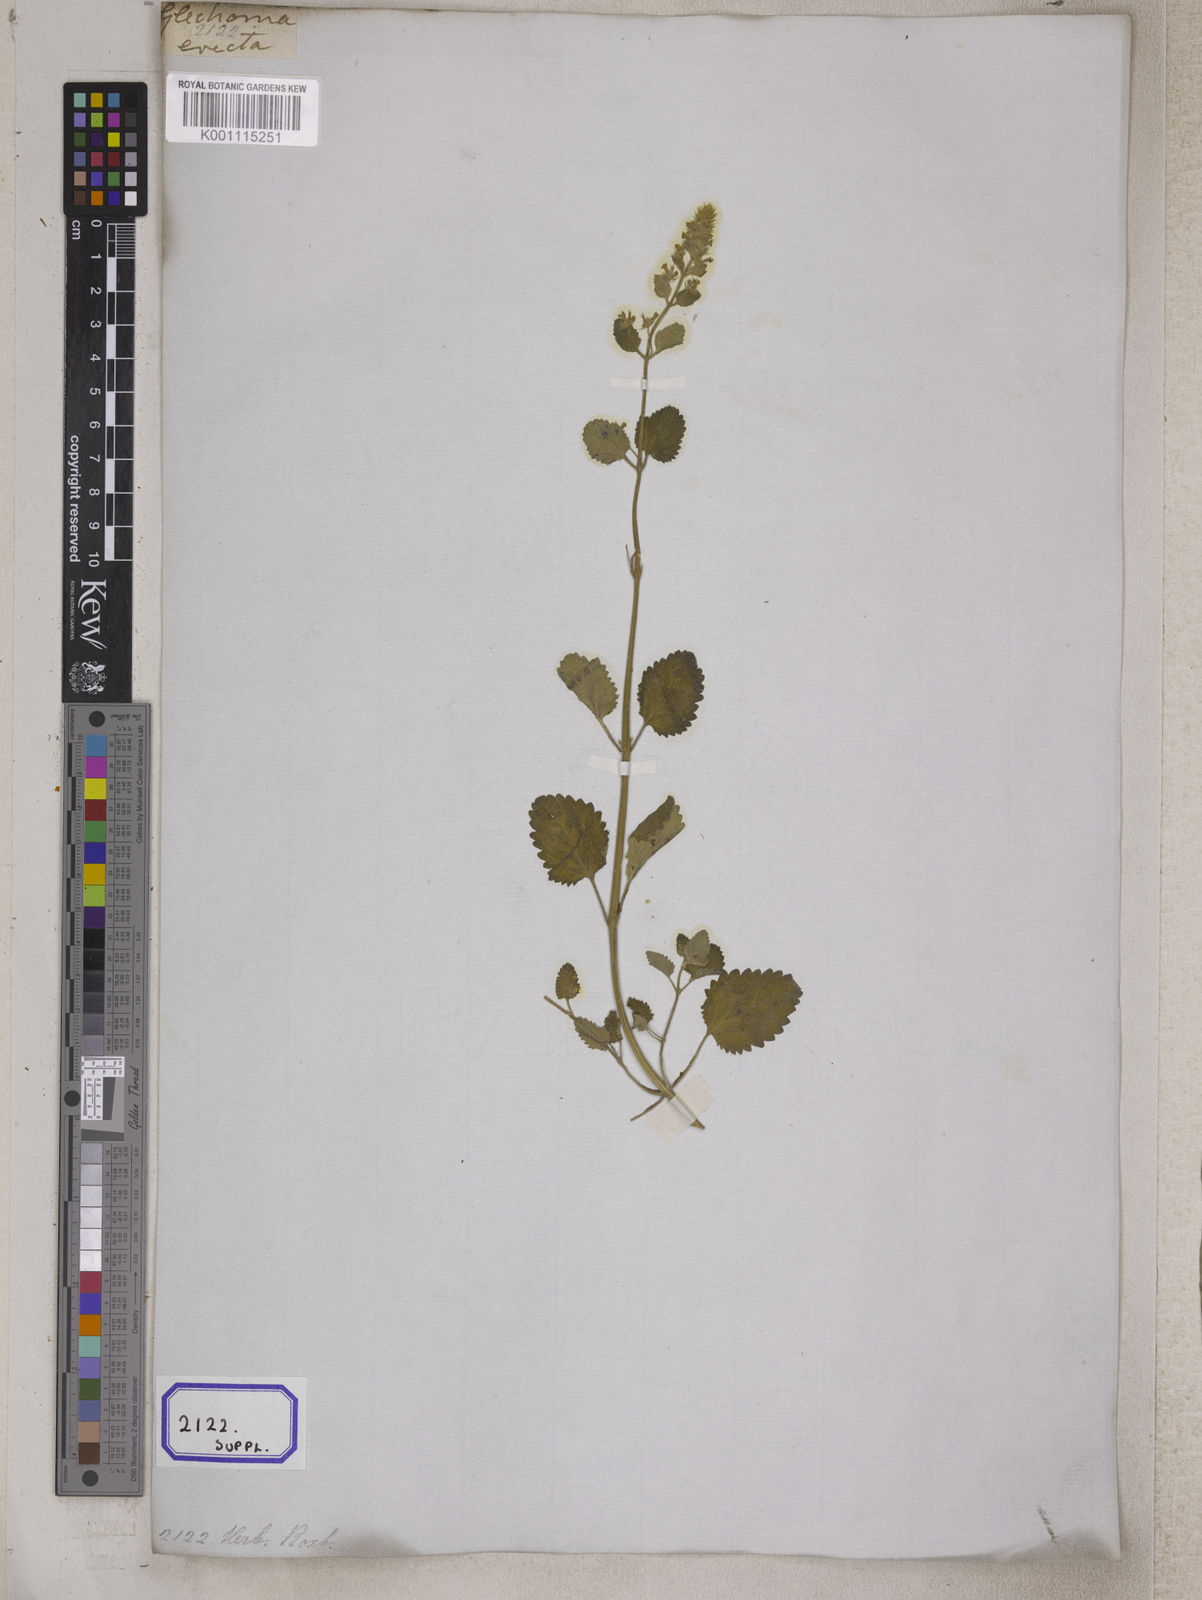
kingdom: Plantae
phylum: Tracheophyta
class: Magnoliopsida
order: Lamiales
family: Lamiaceae
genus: Nepeta
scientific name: Nepeta
